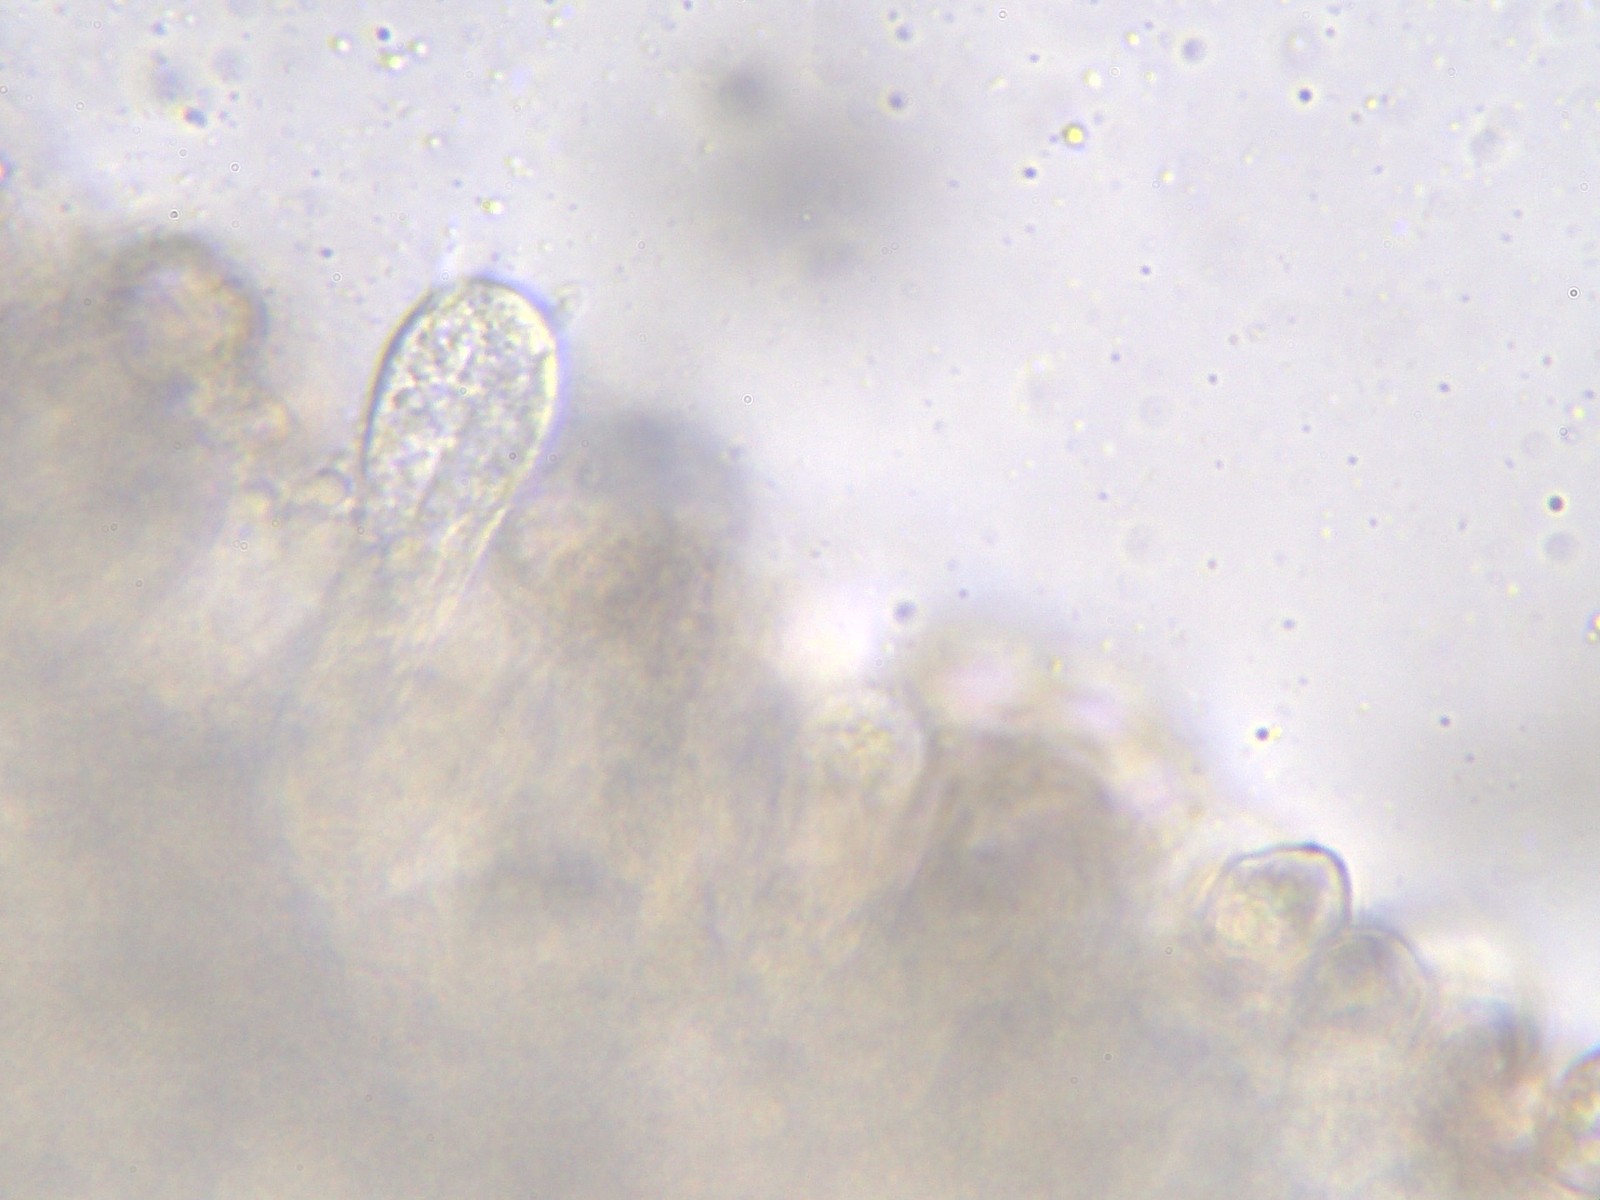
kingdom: Fungi
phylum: Basidiomycota
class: Agaricomycetes
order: Agaricales
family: Entolomataceae
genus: Entoloma
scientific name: Entoloma viiduense
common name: purpurbrun rødblad
